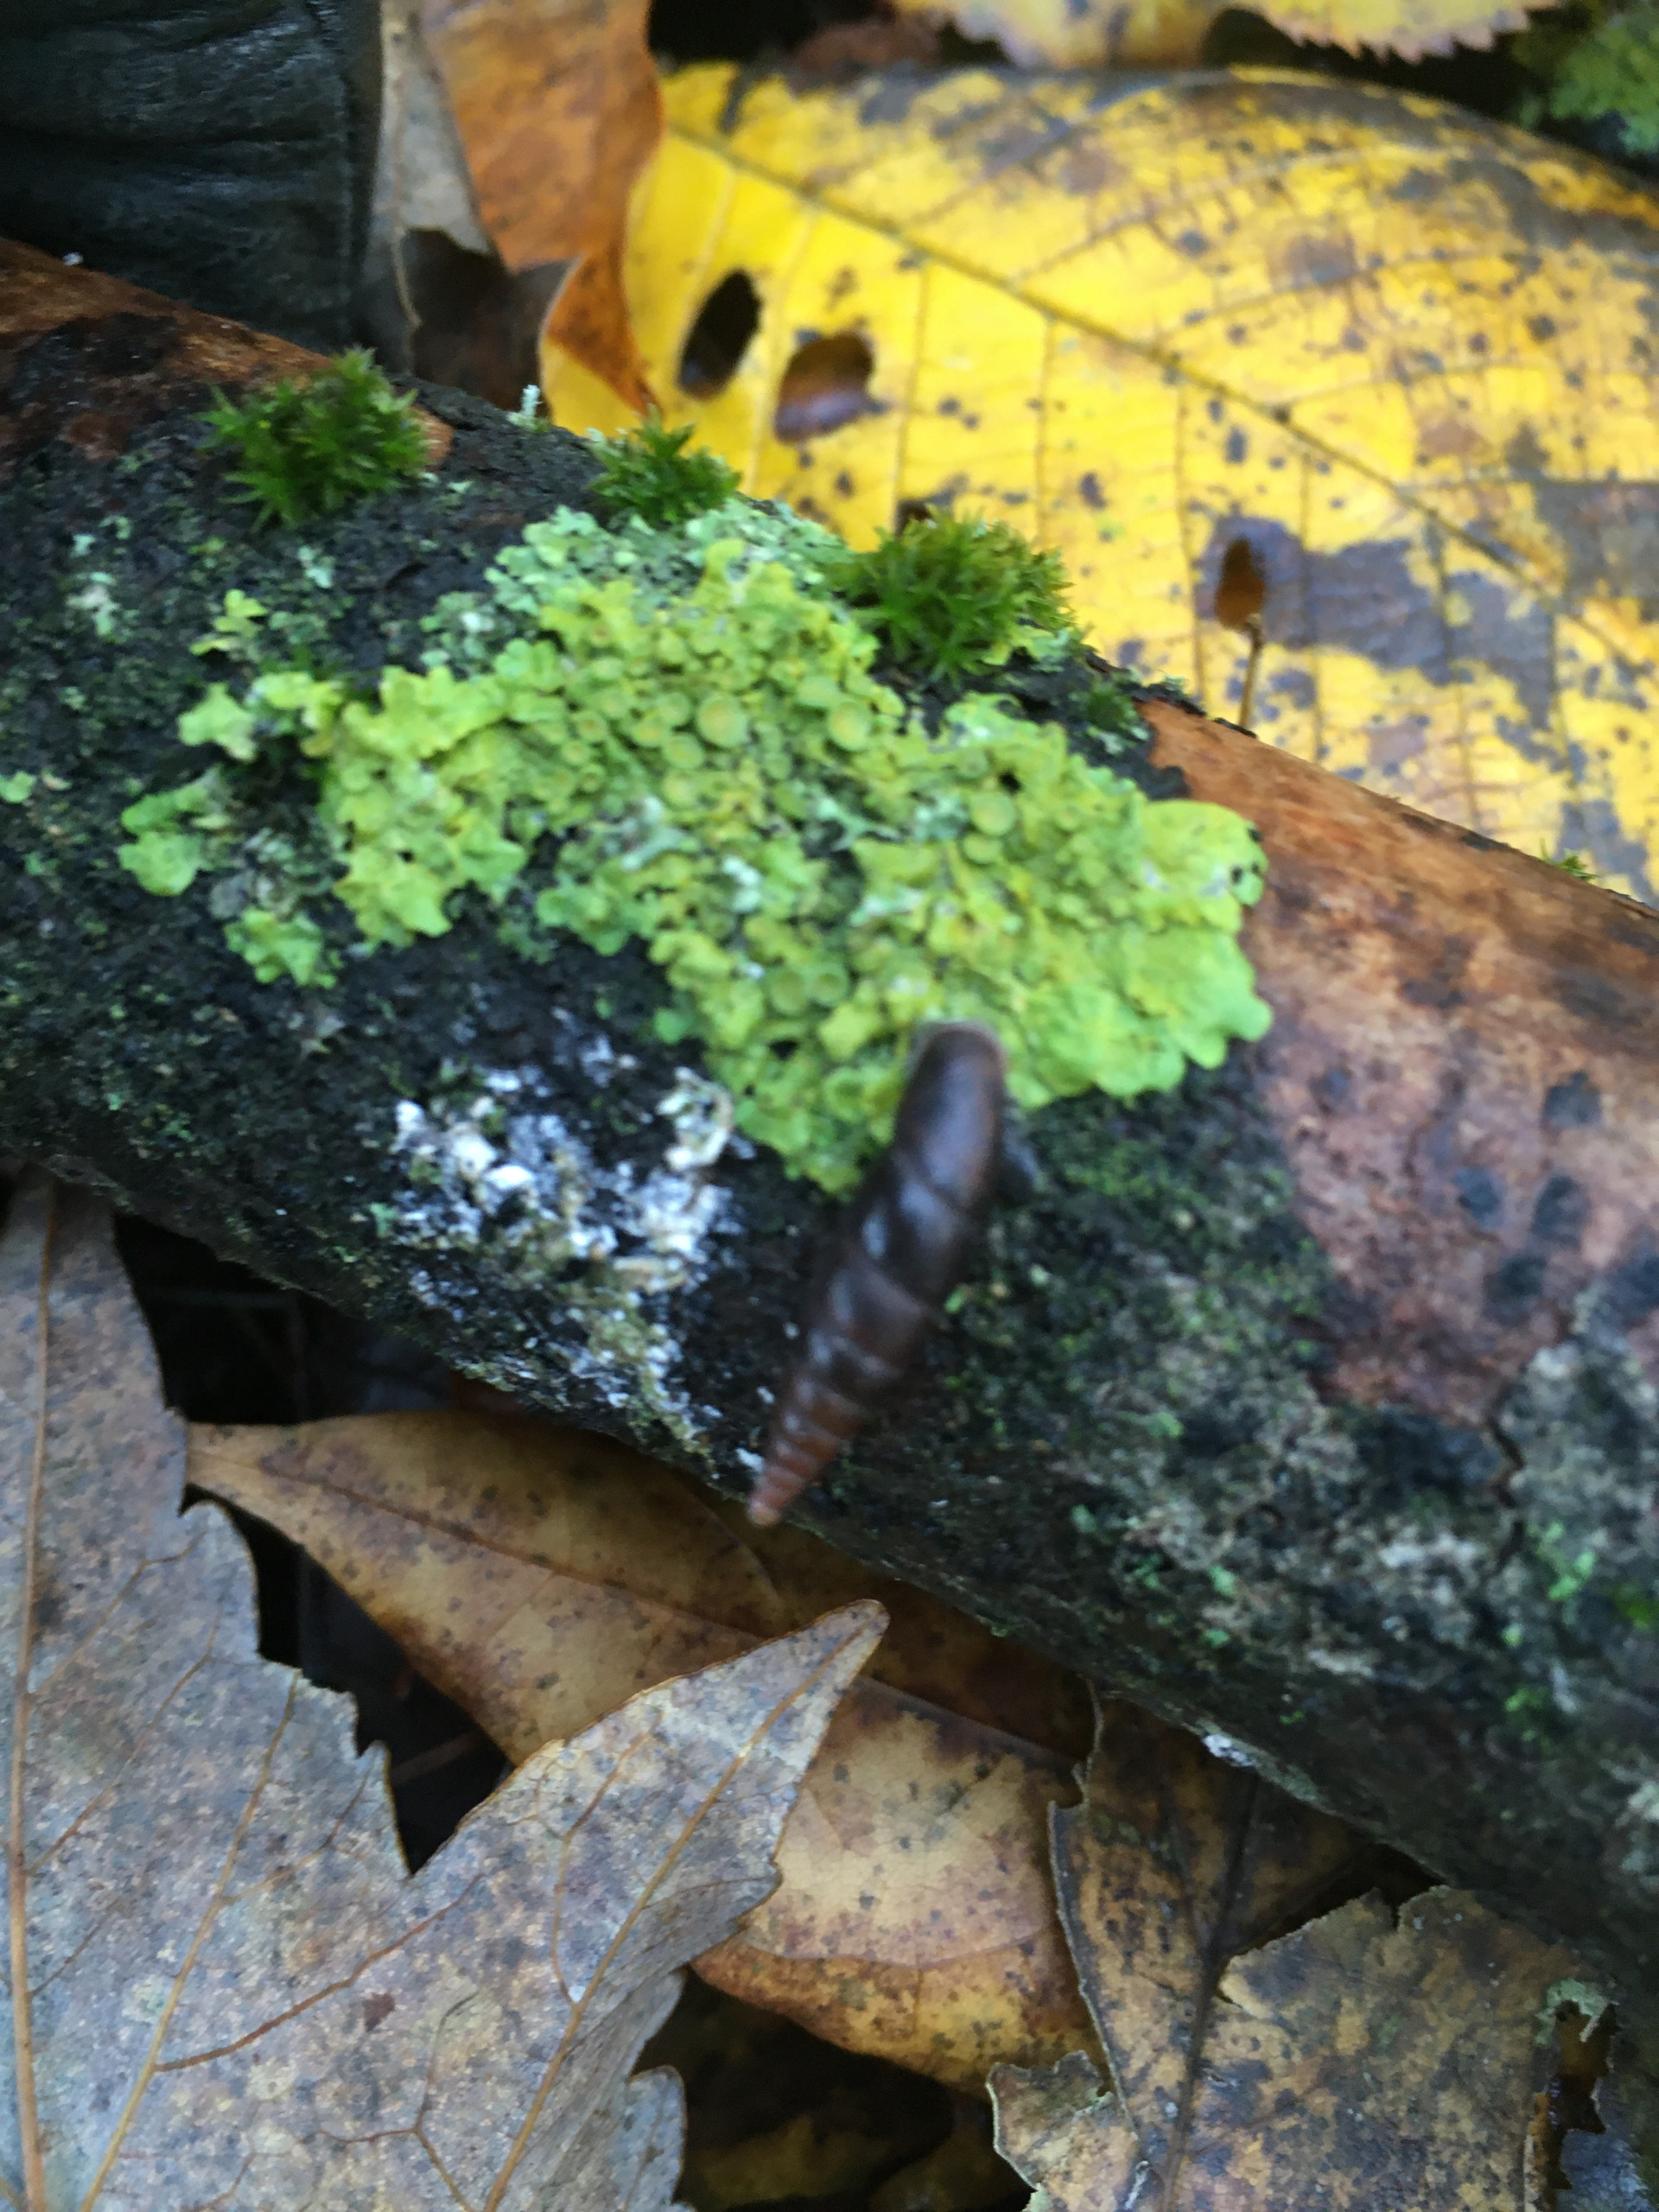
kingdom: Animalia
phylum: Mollusca
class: Gastropoda
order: Stylommatophora
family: Clausiliidae
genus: Cochlodina
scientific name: Cochlodina laminata
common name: Glat foldsnegl
